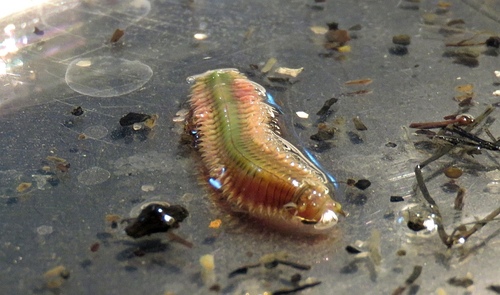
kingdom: Animalia
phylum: Annelida
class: Polychaeta
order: Phyllodocida
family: Nereididae
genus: Hediste
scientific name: Hediste diversicolor
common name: Estuary ragworm
